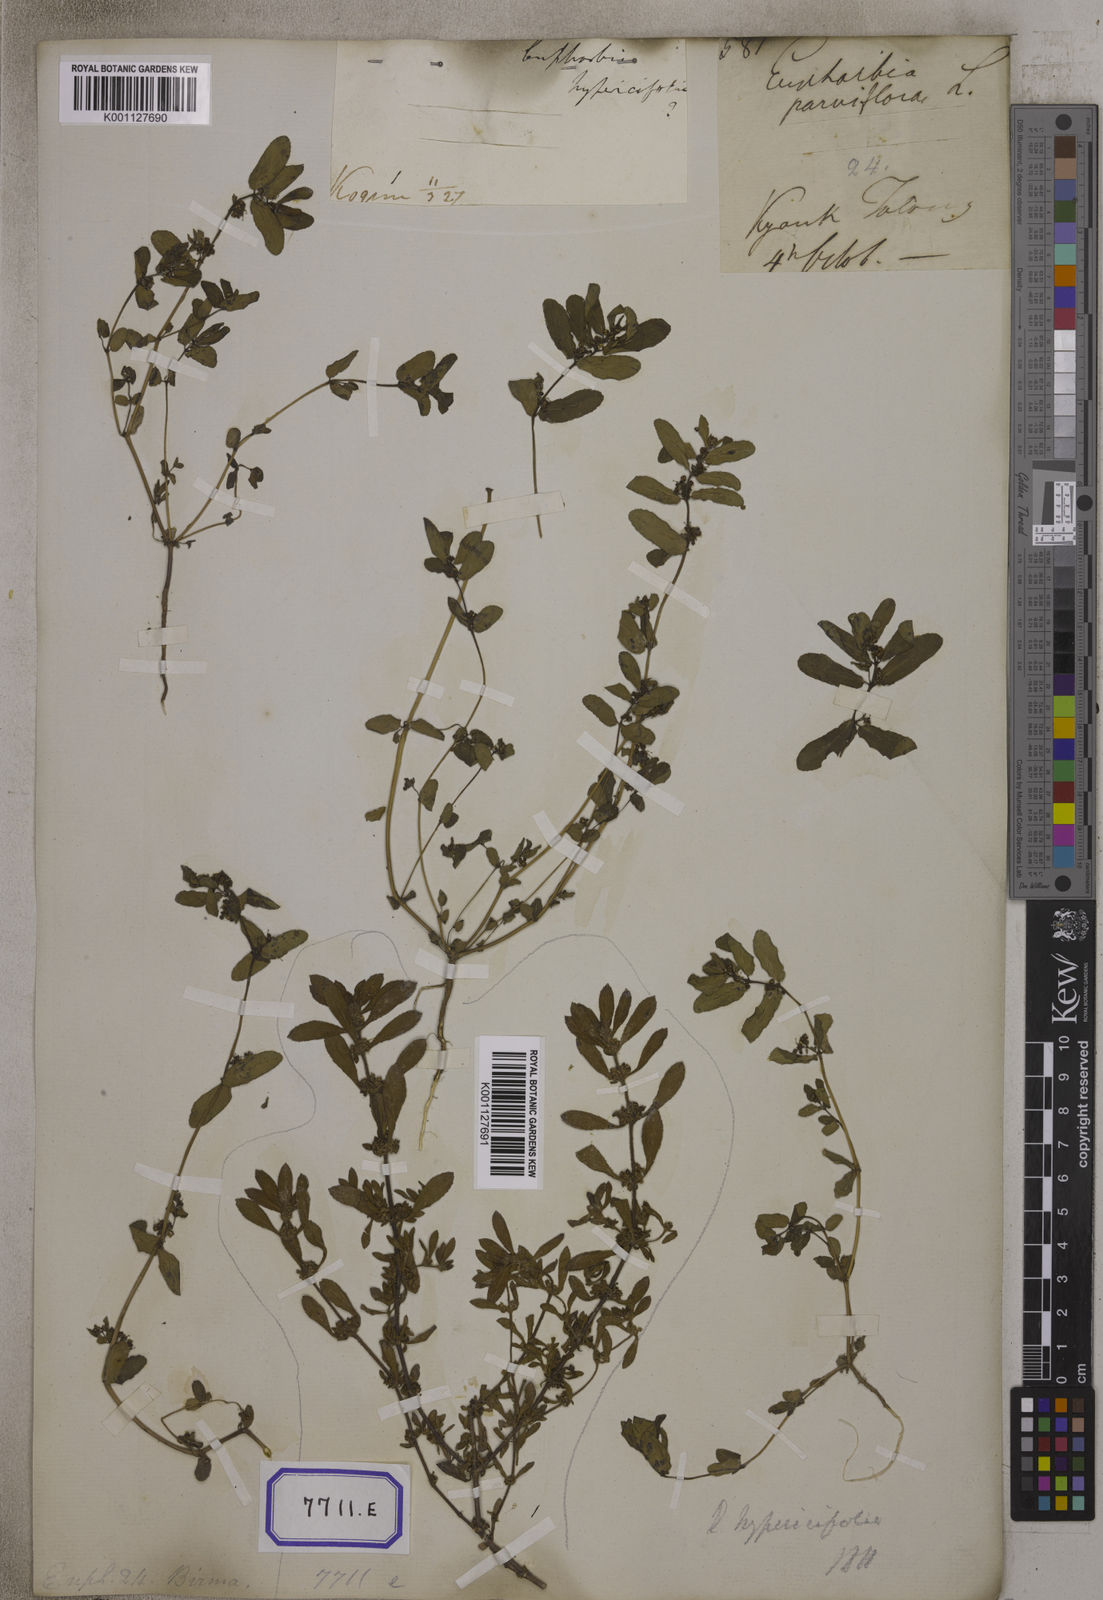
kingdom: Plantae
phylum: Tracheophyta
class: Magnoliopsida
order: Malpighiales
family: Euphorbiaceae
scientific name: Euphorbiaceae
